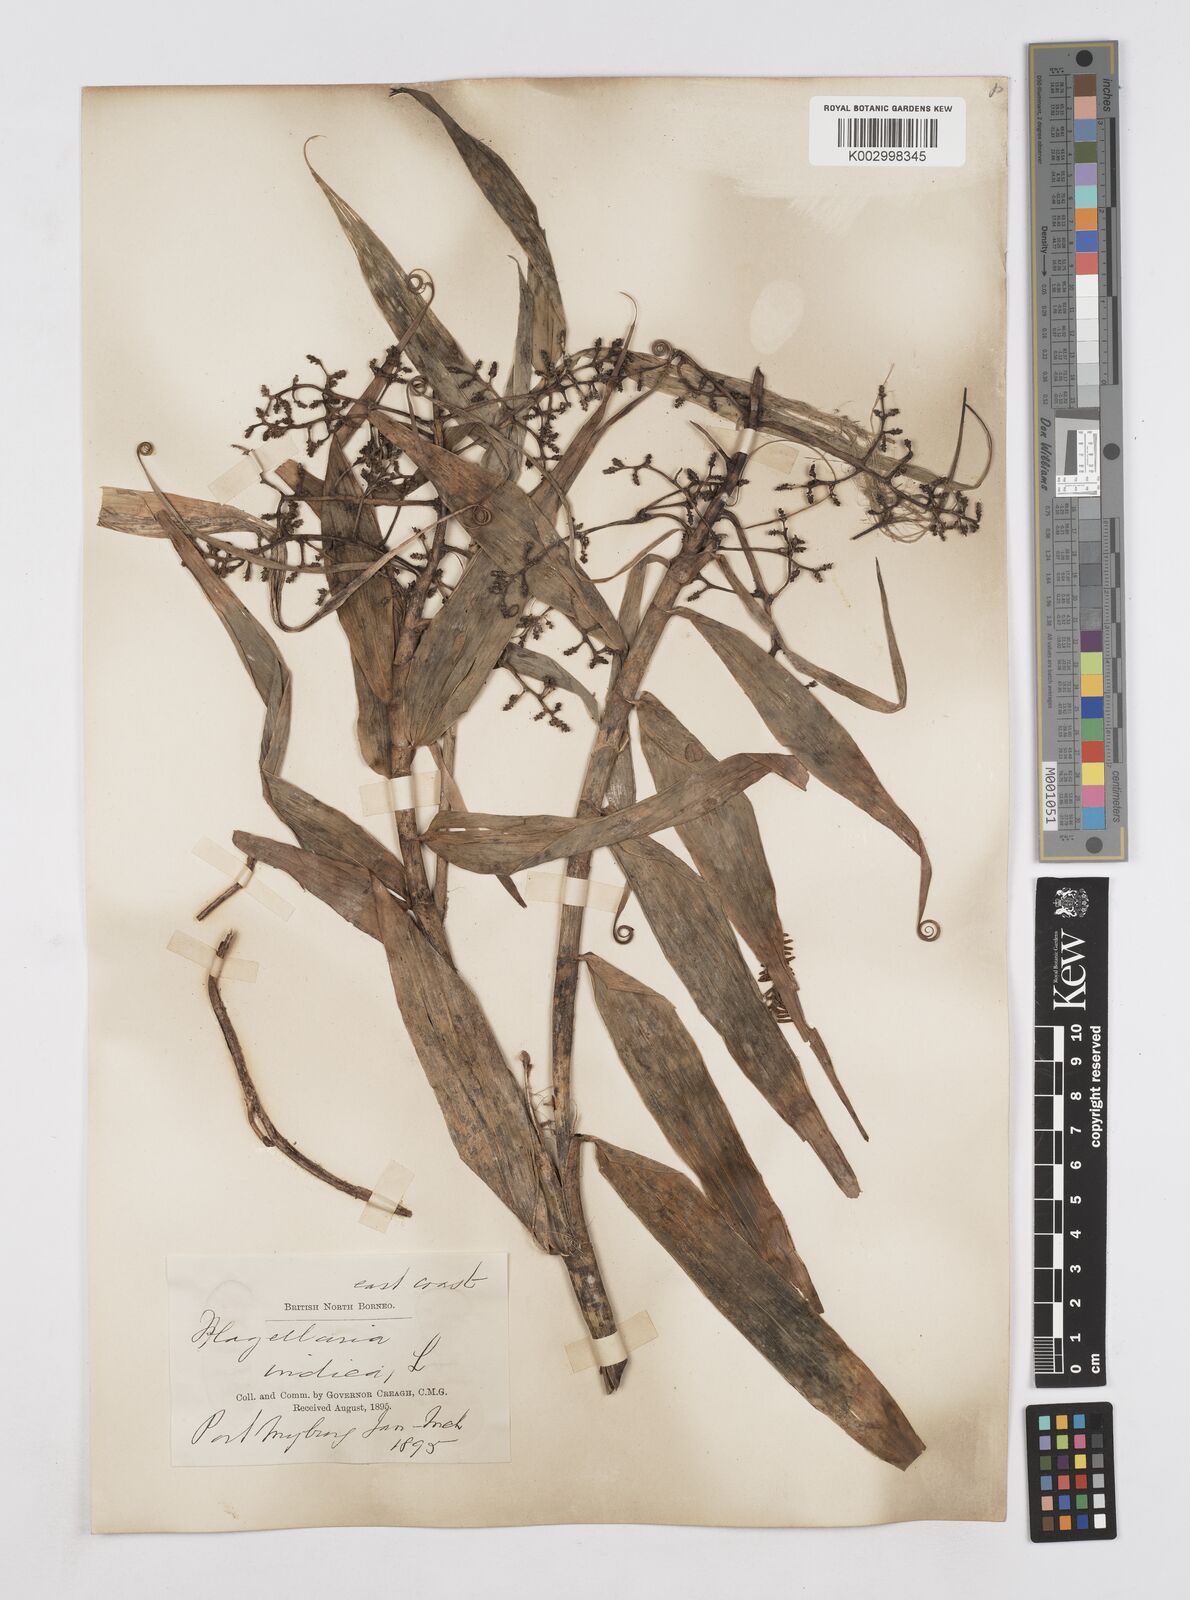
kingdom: Plantae
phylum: Tracheophyta
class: Liliopsida
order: Poales
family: Flagellariaceae
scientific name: Flagellariaceae
